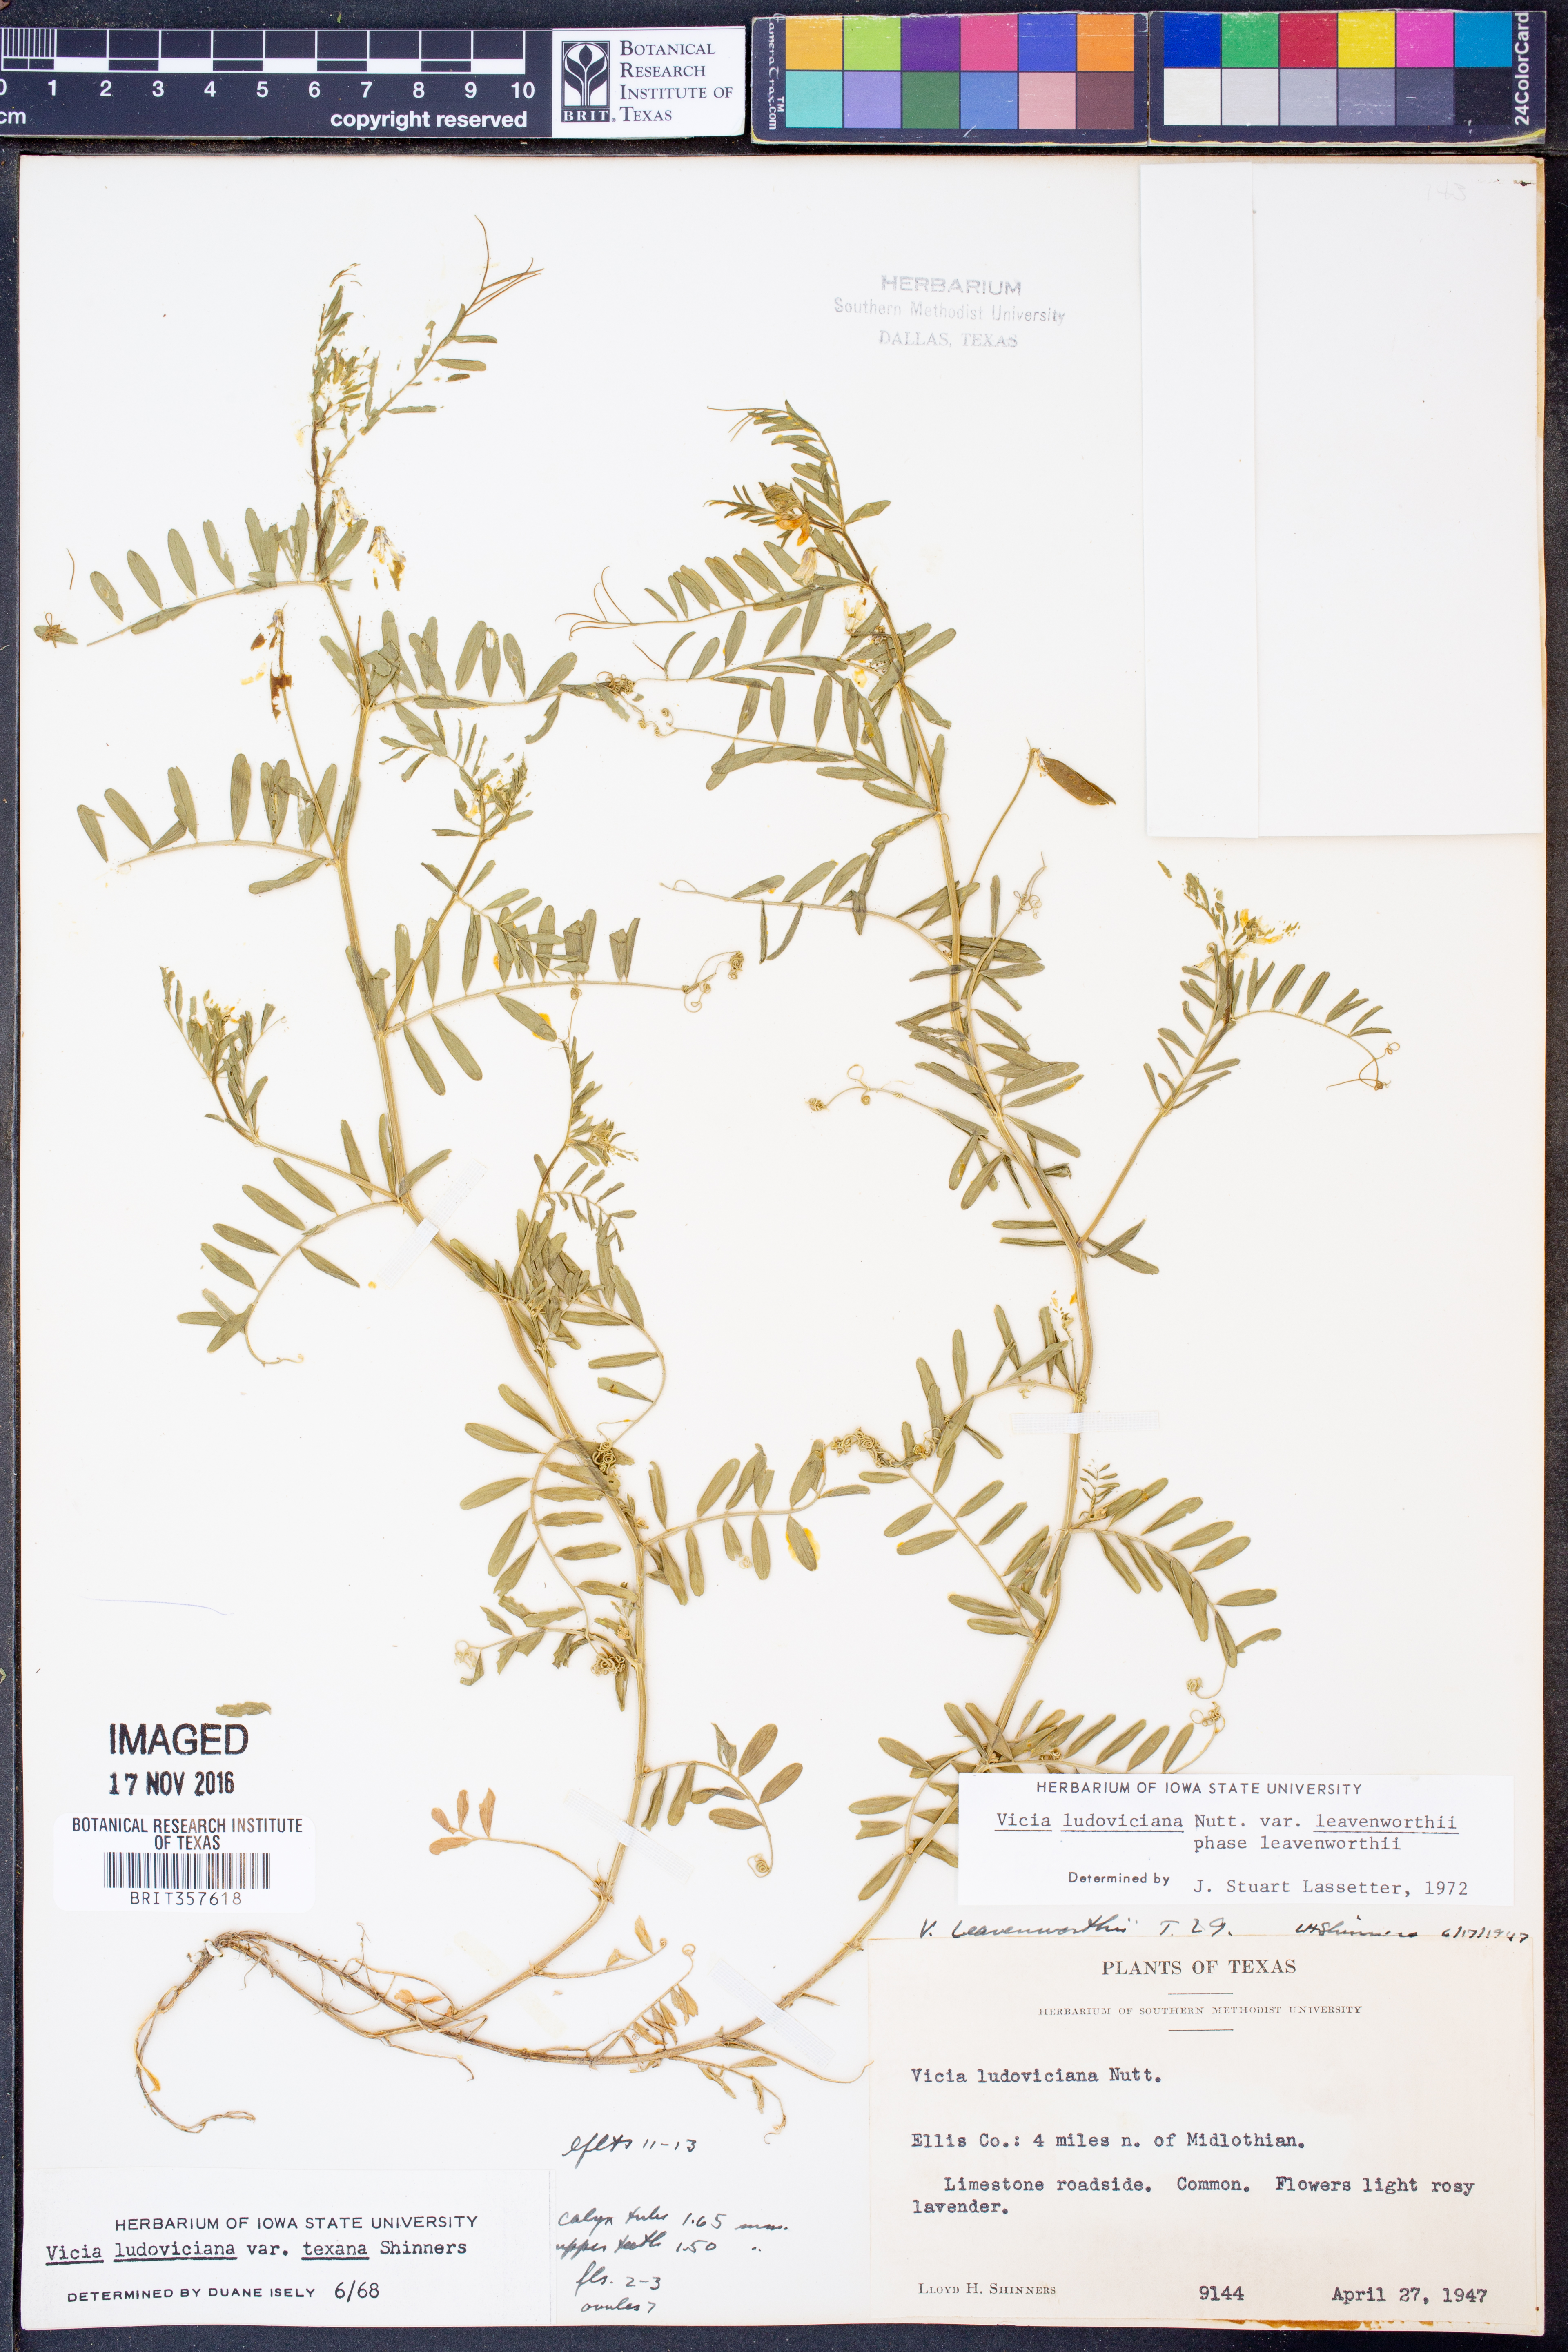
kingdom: Plantae
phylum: Tracheophyta
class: Magnoliopsida
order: Fabales
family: Fabaceae
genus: Vicia
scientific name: Vicia ludoviciana
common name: Louisiana vetch
